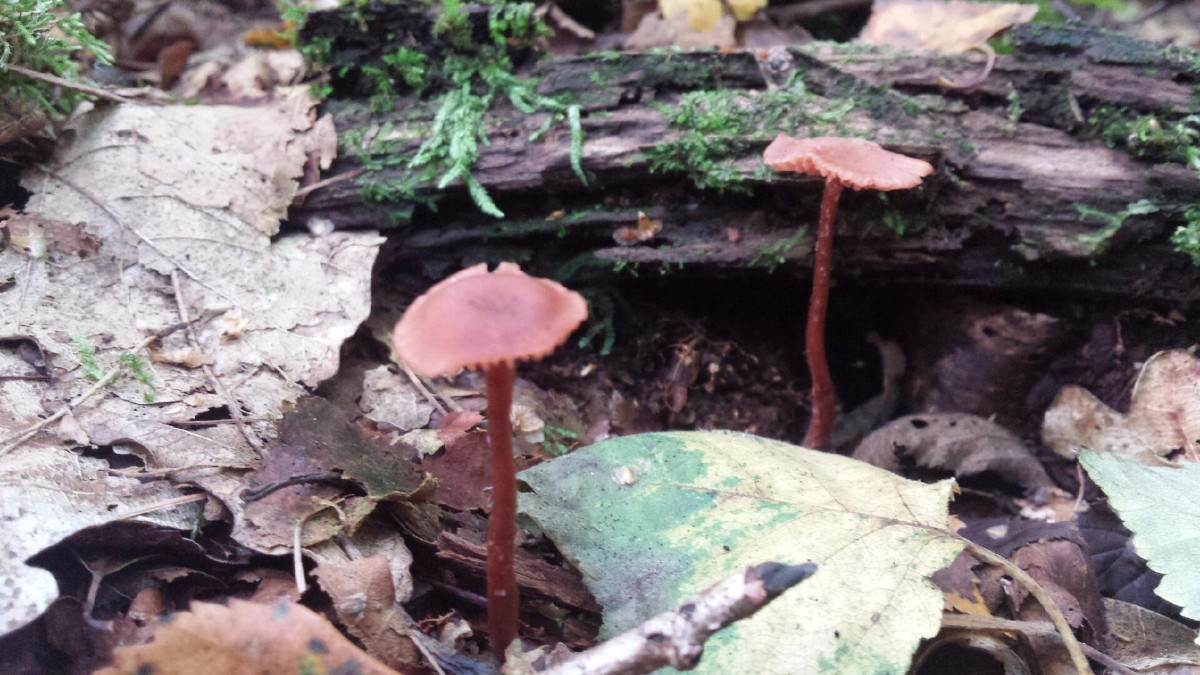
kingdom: Fungi
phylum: Basidiomycota
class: Agaricomycetes
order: Agaricales
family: Hydnangiaceae
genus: Laccaria
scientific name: Laccaria laccata
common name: rød ametysthat
